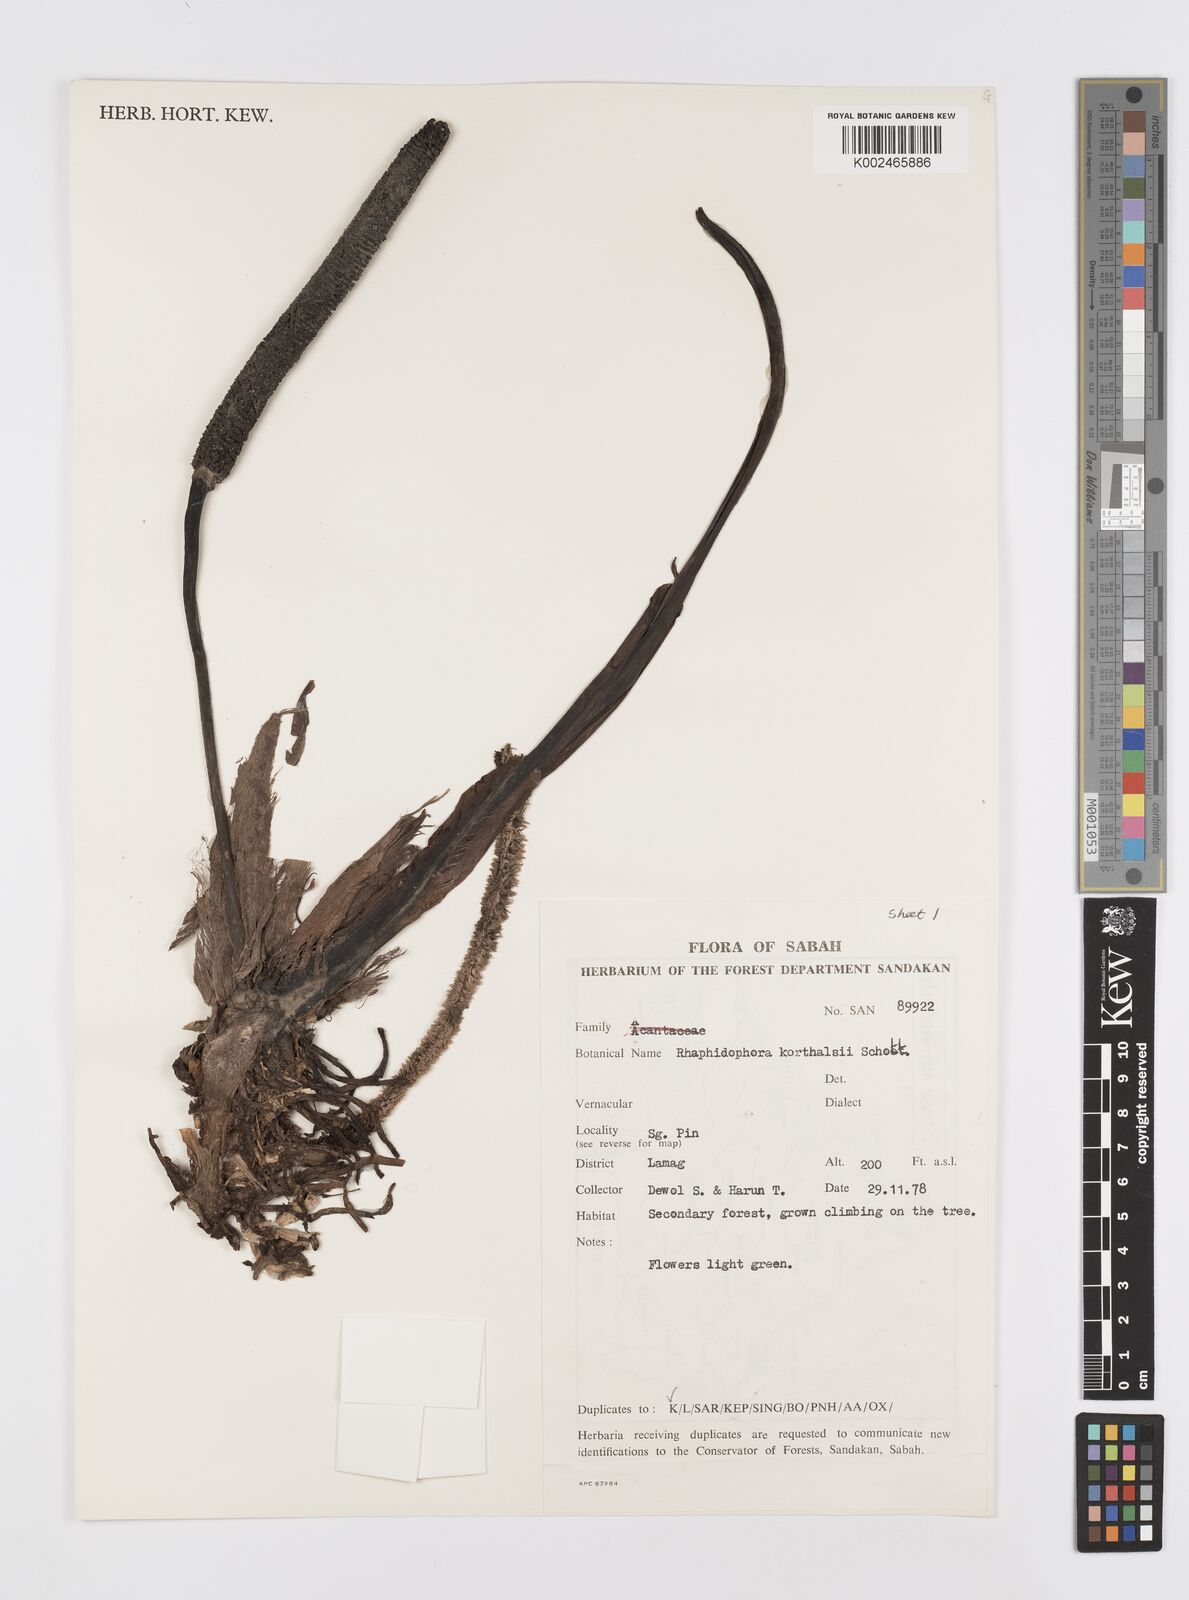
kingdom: Plantae
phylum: Tracheophyta
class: Liliopsida
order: Alismatales
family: Araceae
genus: Rhaphidophora
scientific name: Rhaphidophora korthalsii
